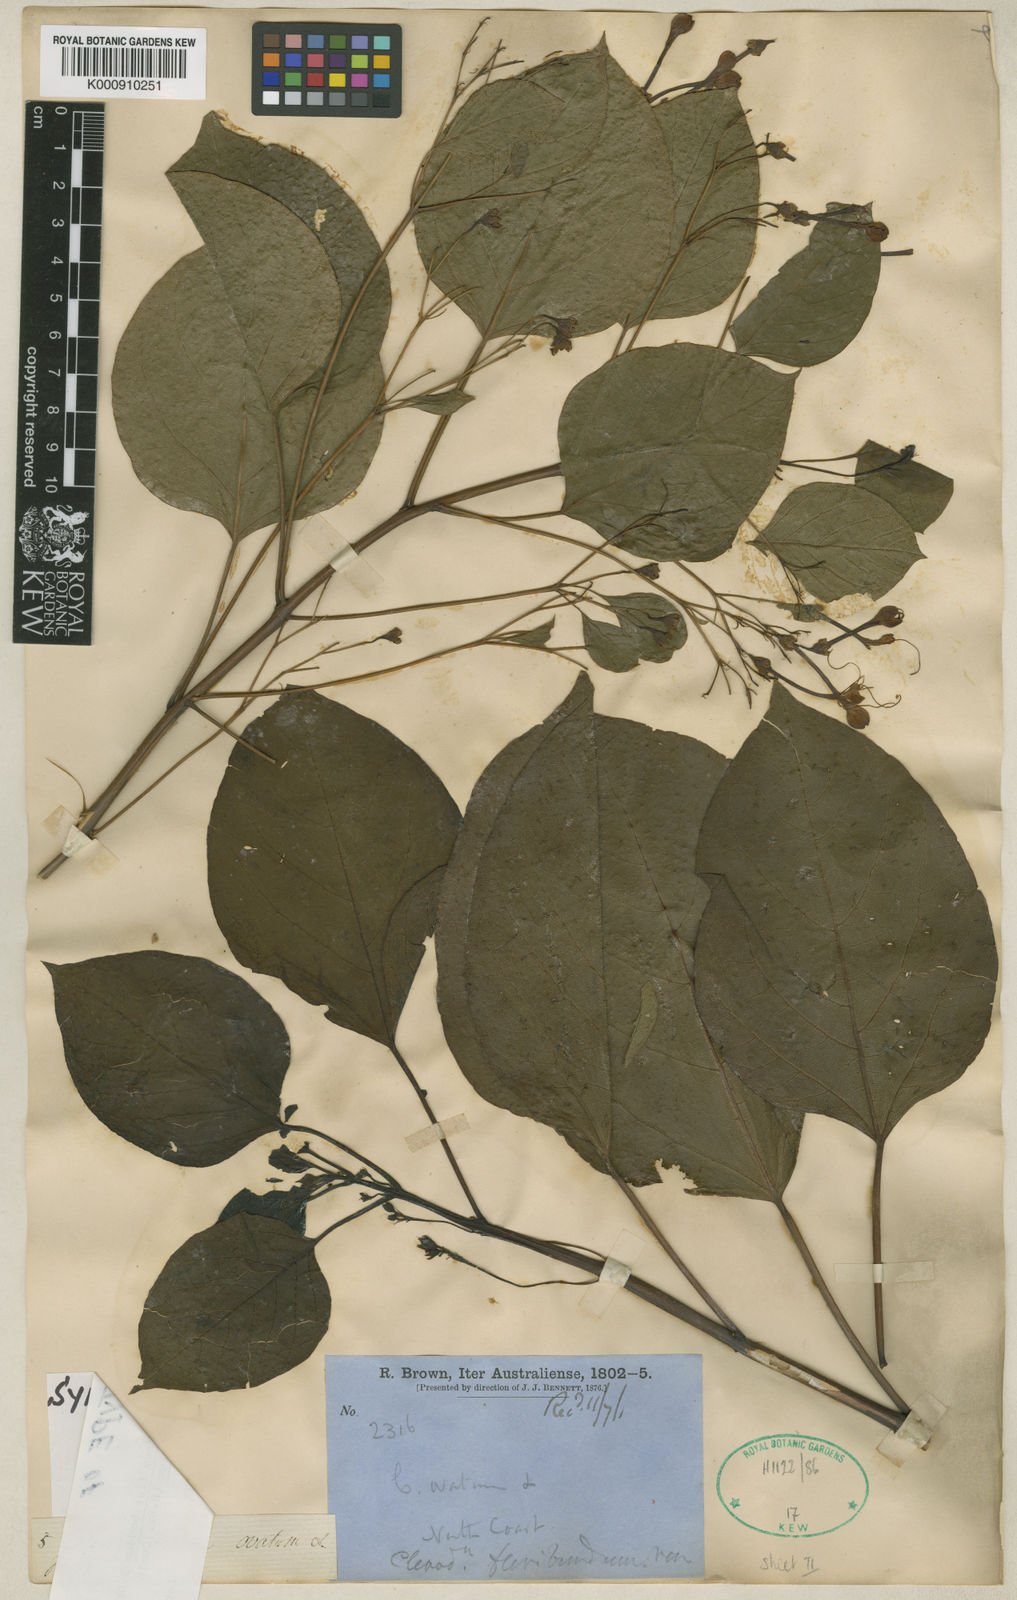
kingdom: Plantae
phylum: Tracheophyta
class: Magnoliopsida
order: Lamiales
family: Lamiaceae
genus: Clerodendrum
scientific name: Clerodendrum floribundum
